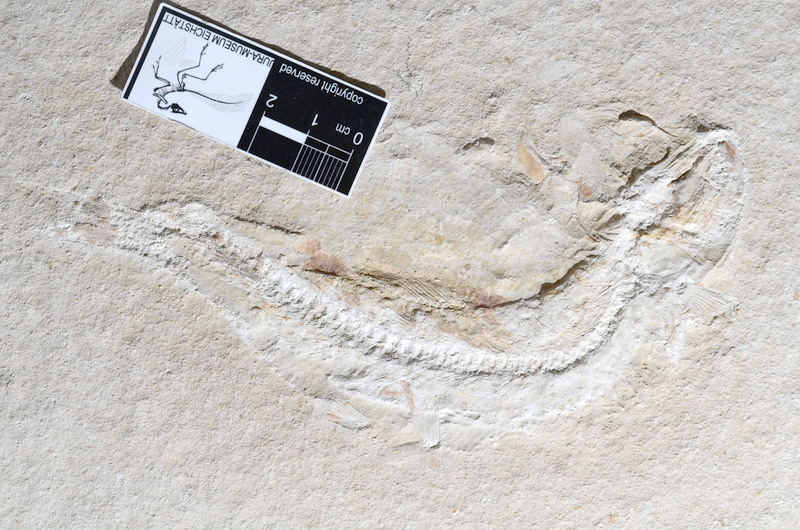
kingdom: Animalia
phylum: Chordata
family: Ascalaboidae
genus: Tharsis
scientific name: Tharsis dubius
